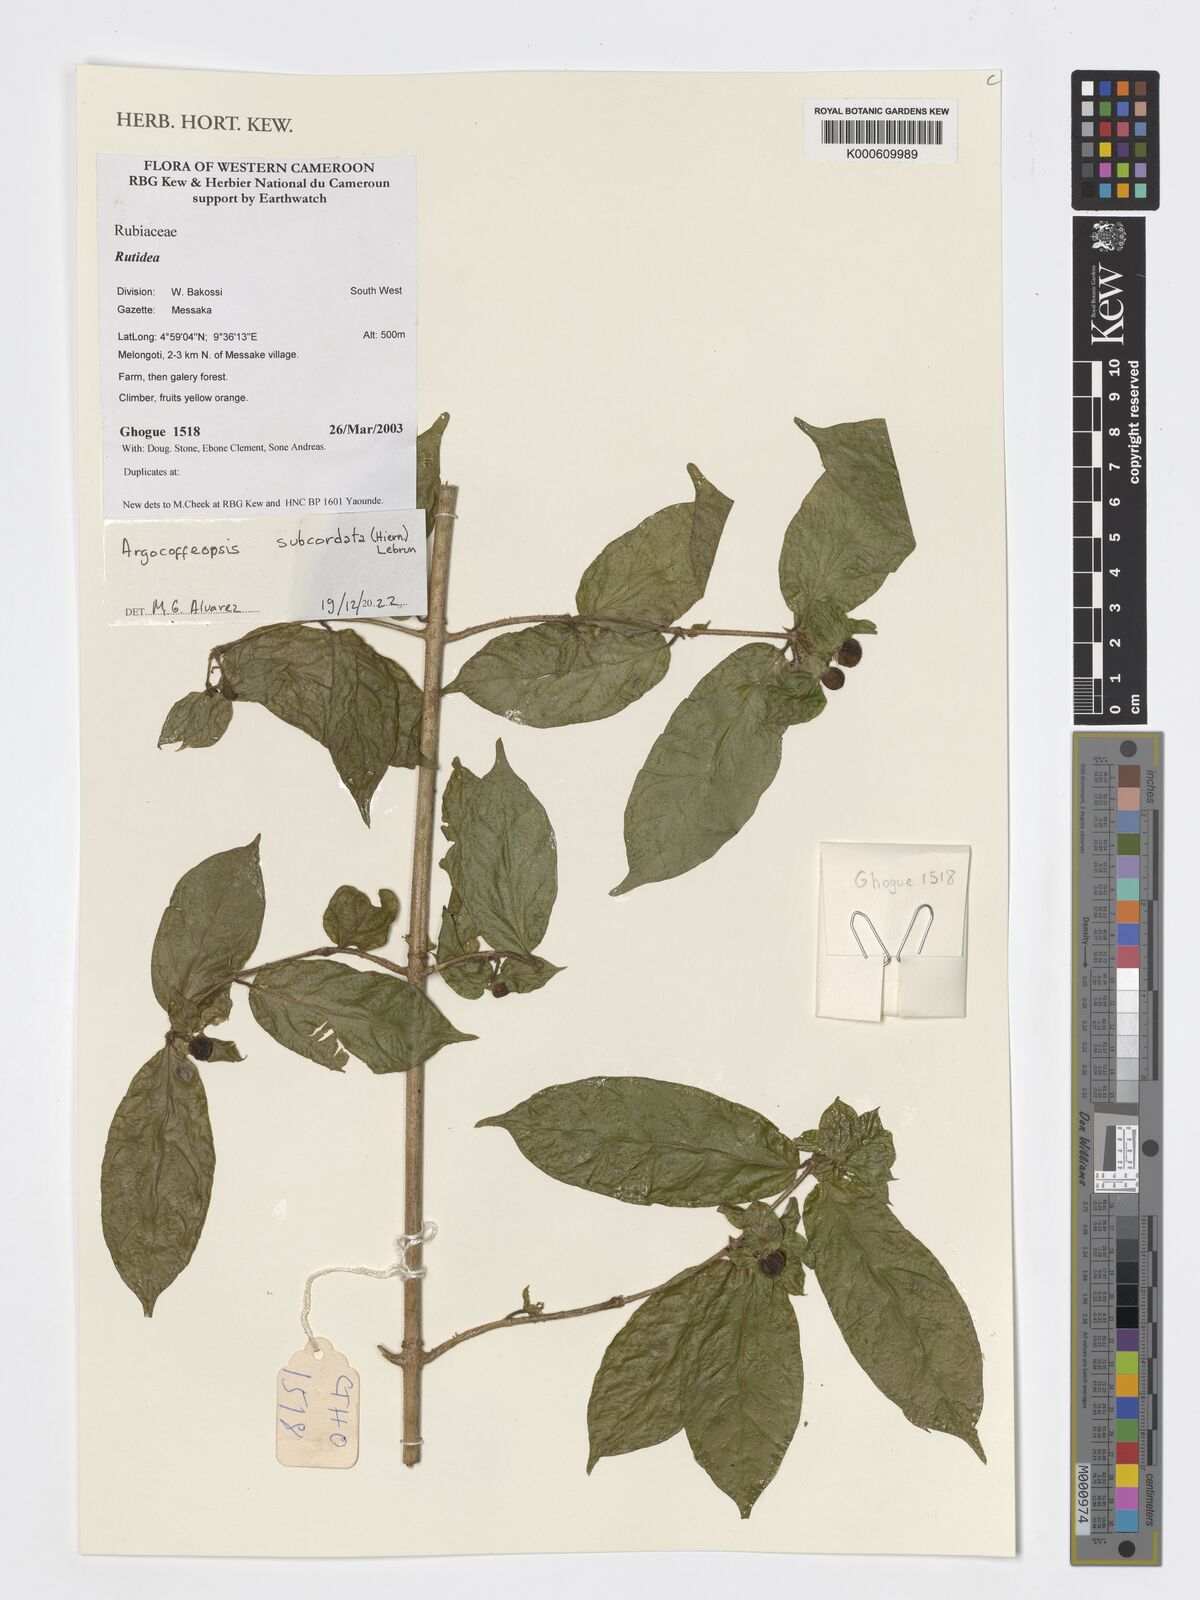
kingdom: Plantae
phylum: Tracheophyta
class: Magnoliopsida
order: Gentianales
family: Rubiaceae
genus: Argocoffeopsis
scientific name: Argocoffeopsis subcordata
